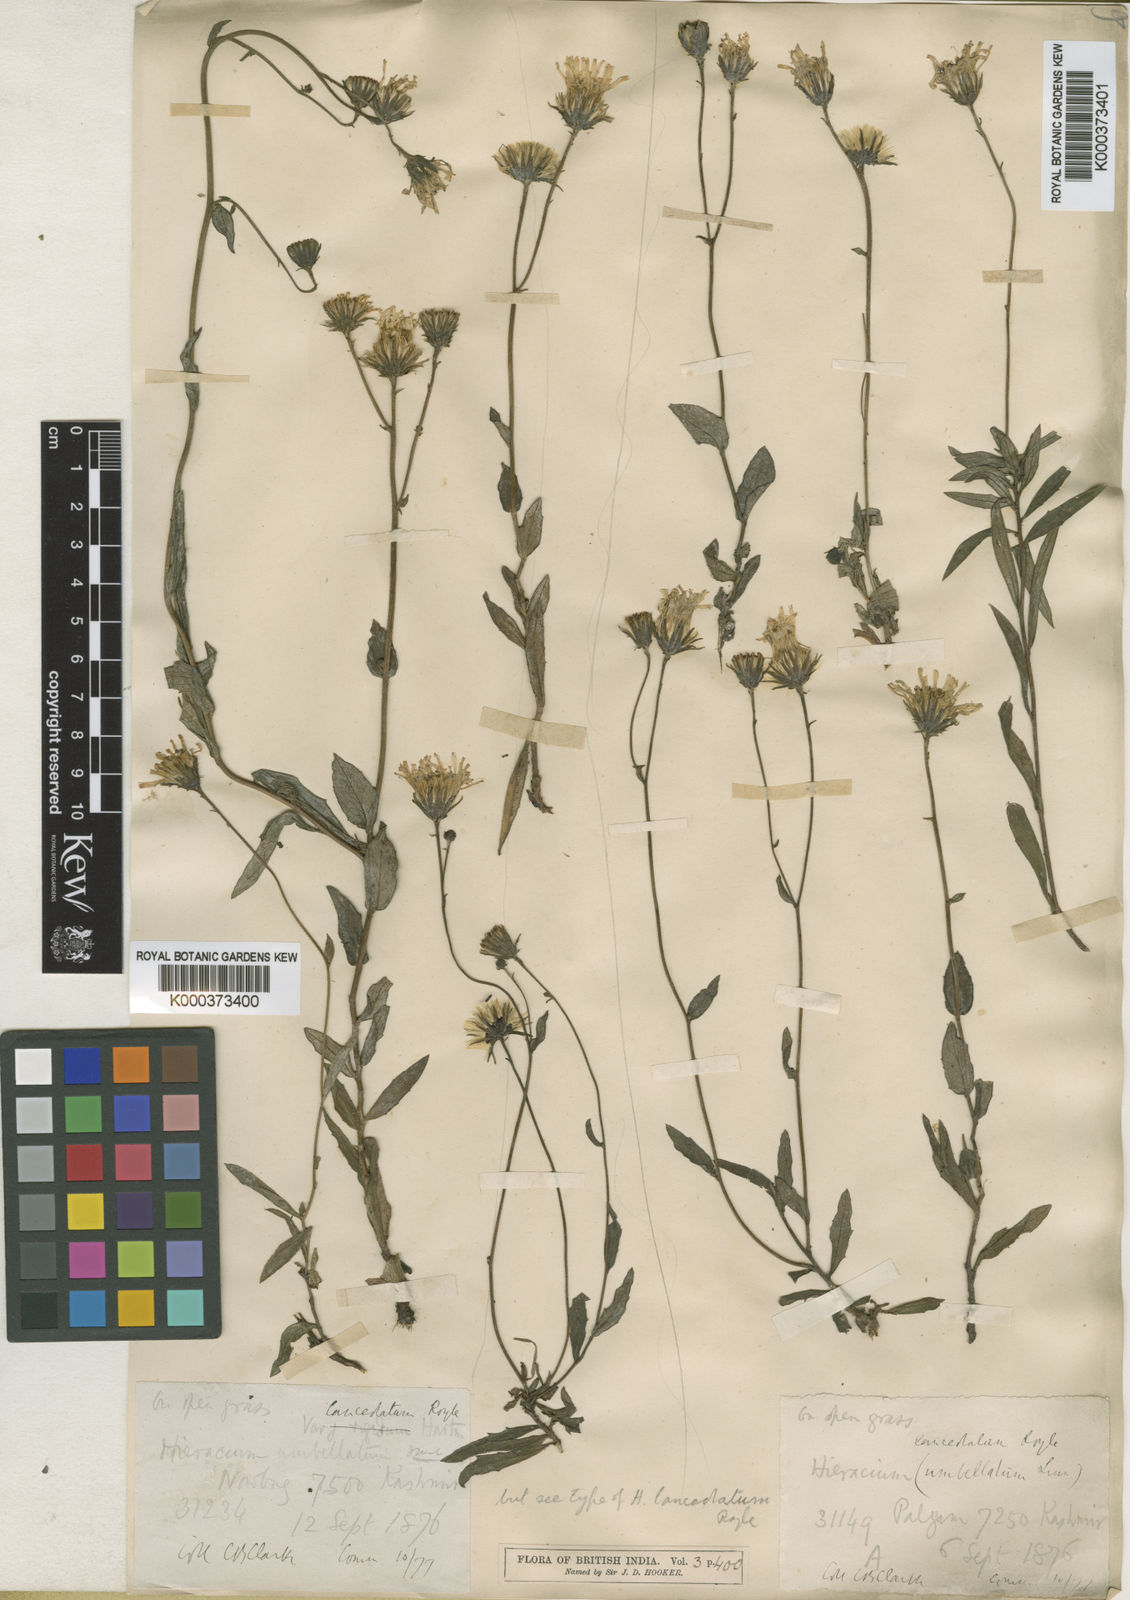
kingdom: Plantae
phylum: Tracheophyta
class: Magnoliopsida
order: Asterales
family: Asteraceae
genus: Hieracium
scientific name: Hieracium umbellatum
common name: Northern hawkweed
